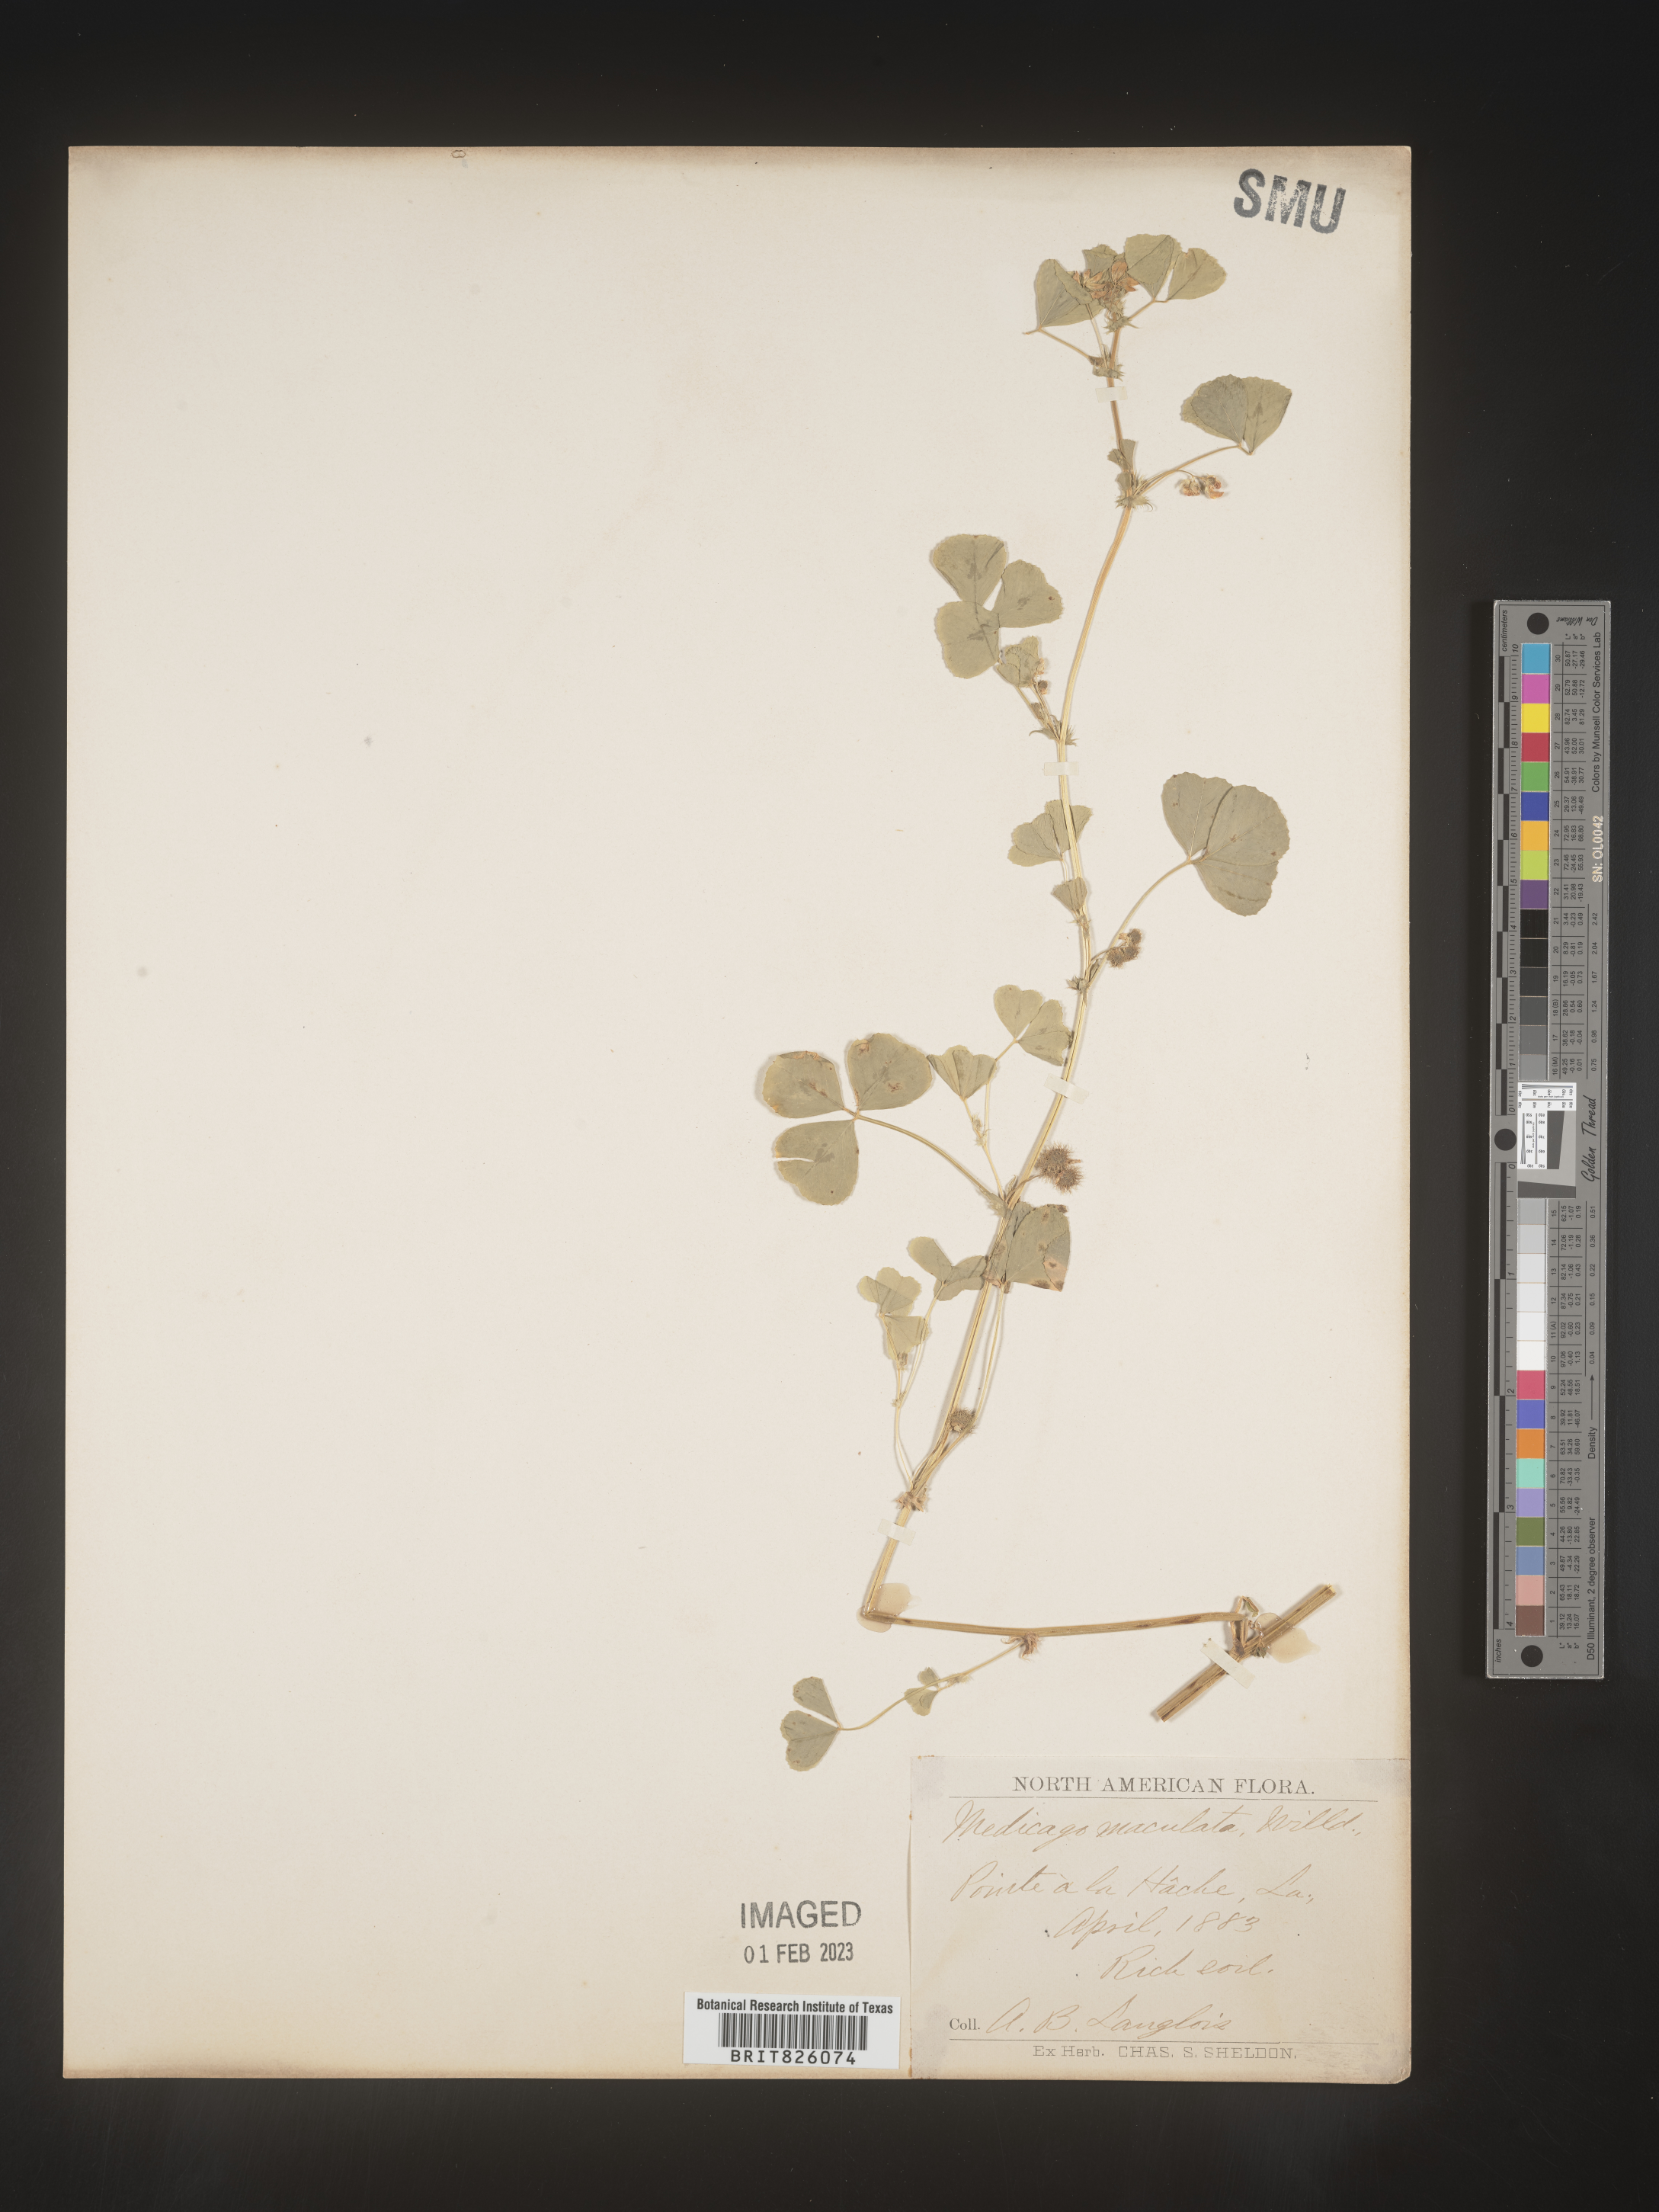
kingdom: Plantae
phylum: Tracheophyta
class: Magnoliopsida
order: Fabales
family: Fabaceae
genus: Medicago
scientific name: Medicago arabica
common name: Spotted medick
